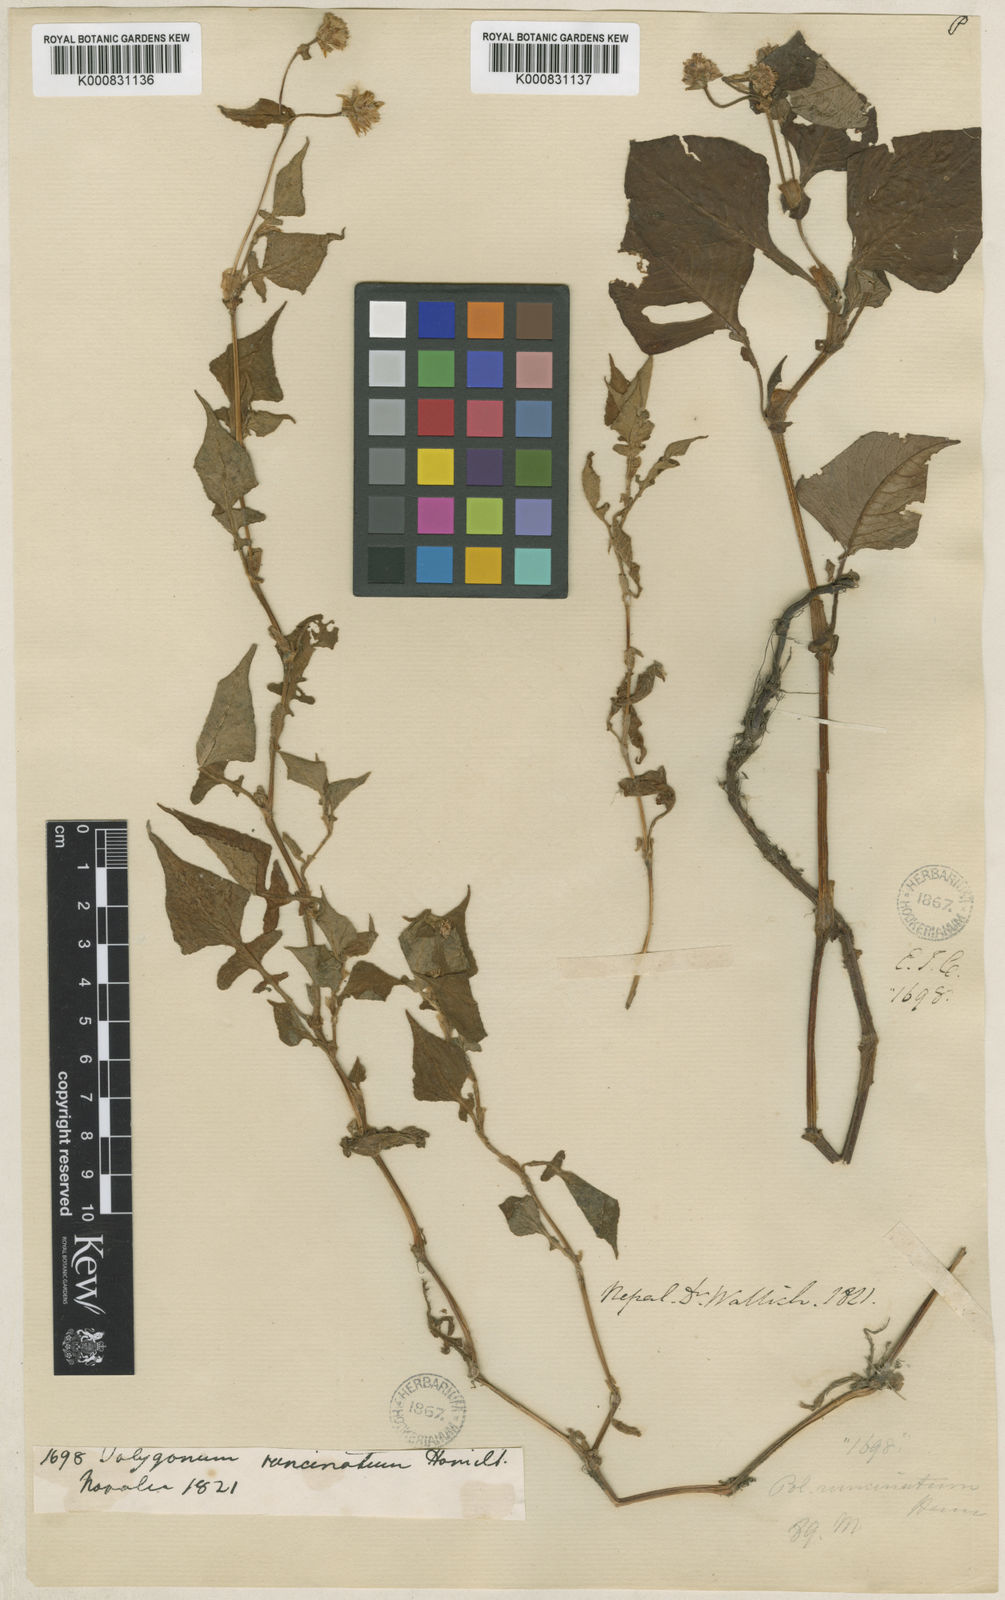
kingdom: Plantae
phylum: Tracheophyta
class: Magnoliopsida
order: Caryophyllales
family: Polygonaceae
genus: Persicaria
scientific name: Persicaria runcinata
